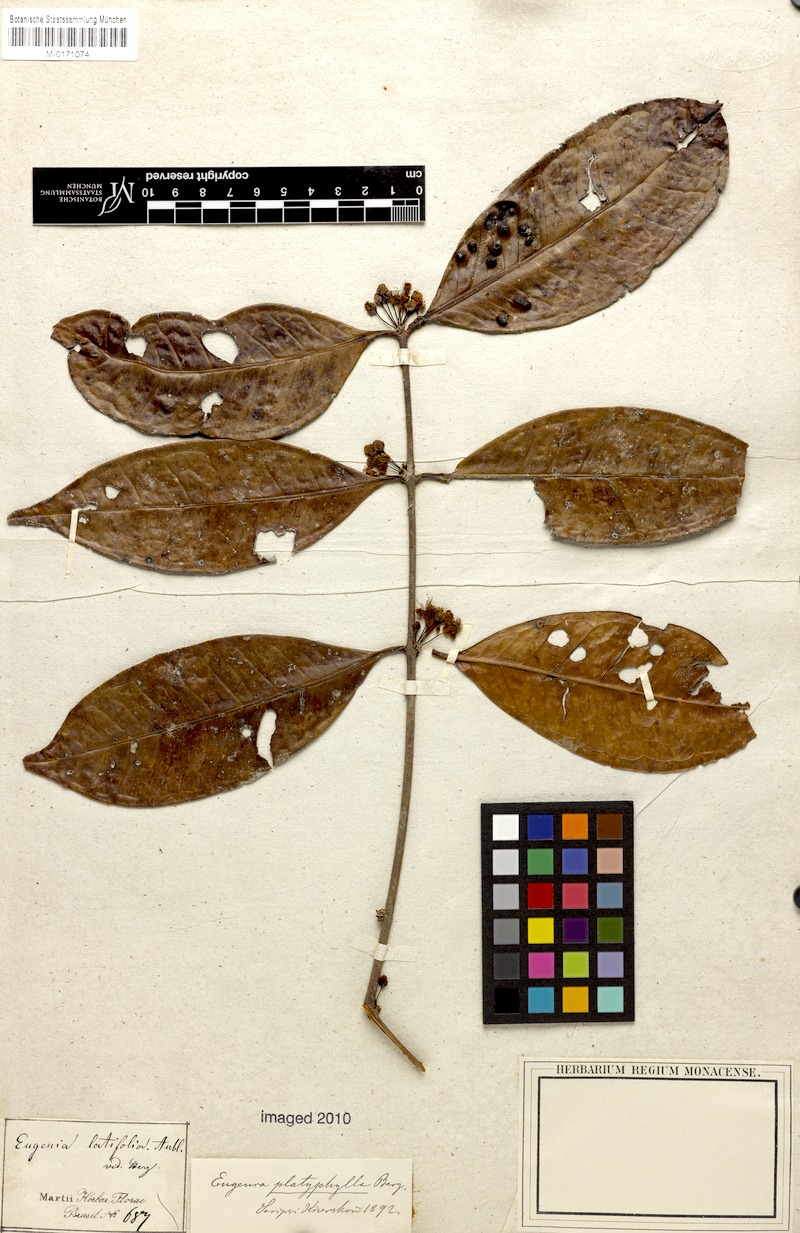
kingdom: Plantae
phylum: Tracheophyta
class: Magnoliopsida
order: Myrtales
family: Myrtaceae
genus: Eugenia
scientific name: Eugenia platyphylla
